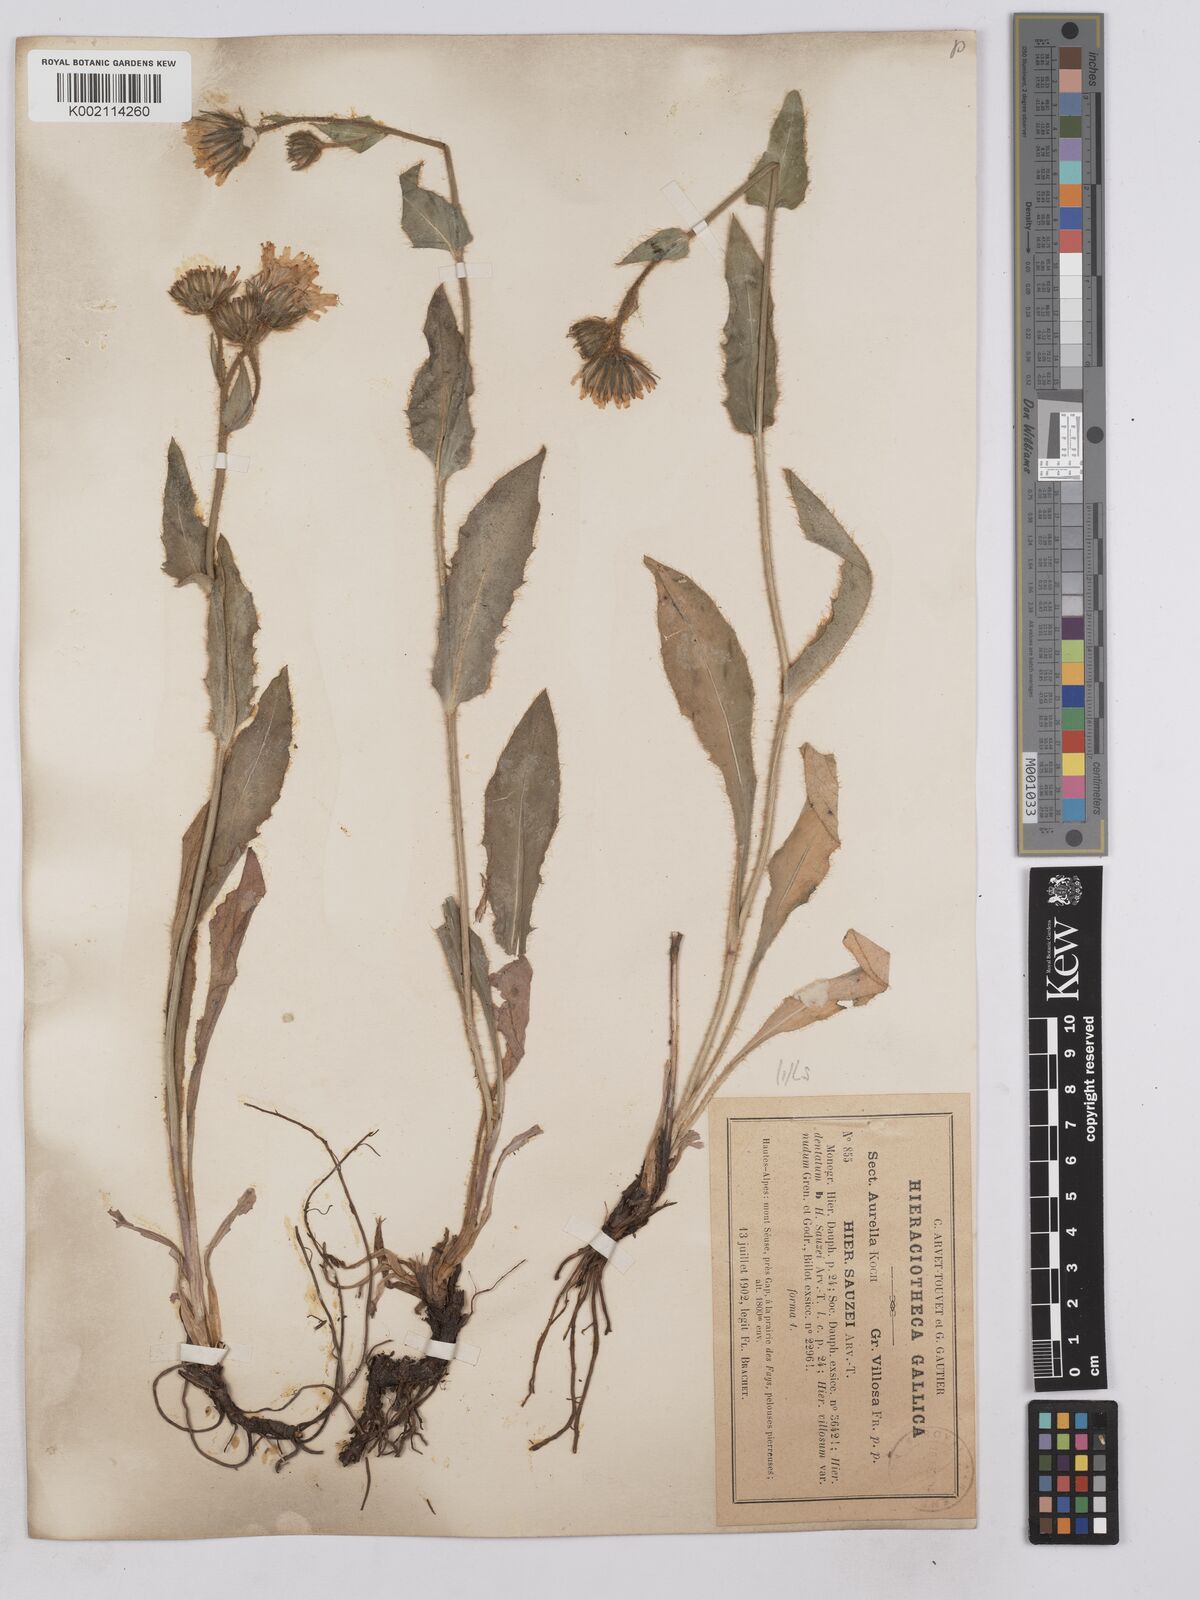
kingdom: Plantae
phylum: Tracheophyta
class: Magnoliopsida
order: Asterales
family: Asteraceae
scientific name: Asteraceae
